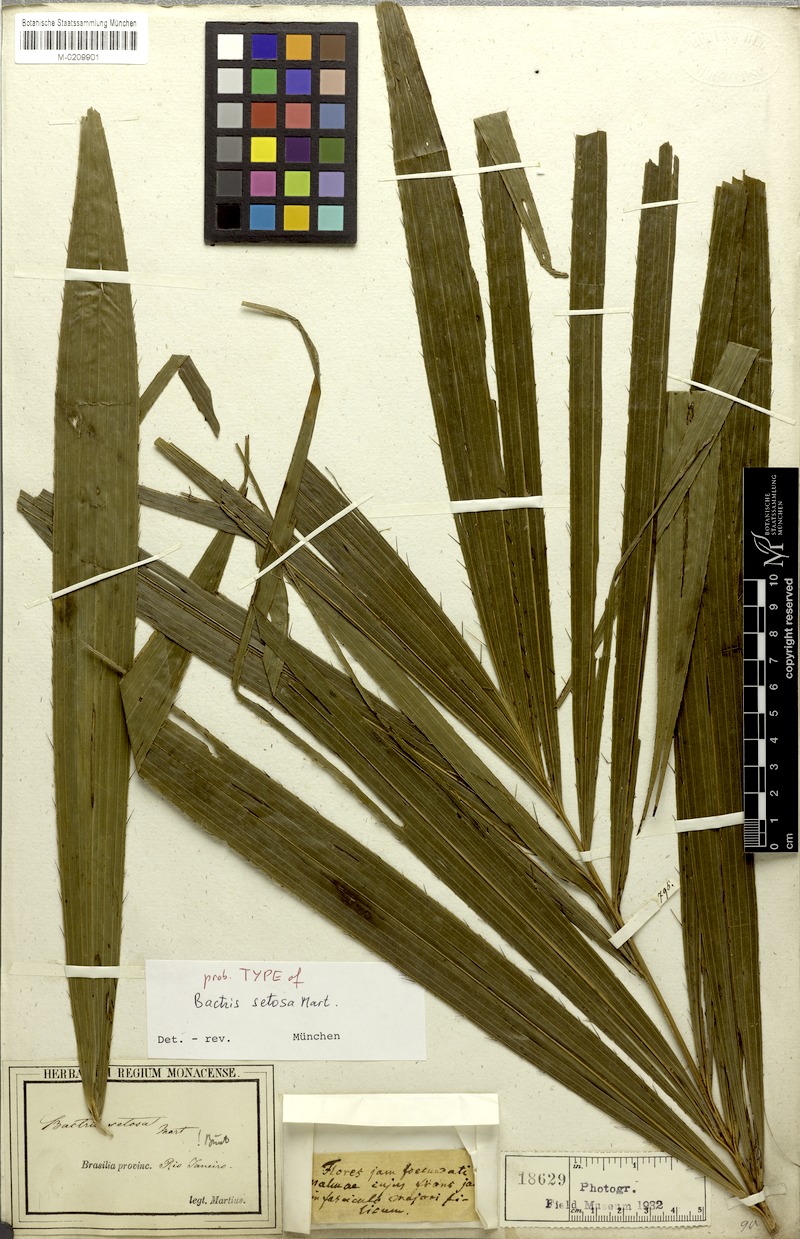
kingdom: Plantae
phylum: Tracheophyta
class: Liliopsida
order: Arecales
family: Arecaceae
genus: Bactris
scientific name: Bactris setosa
